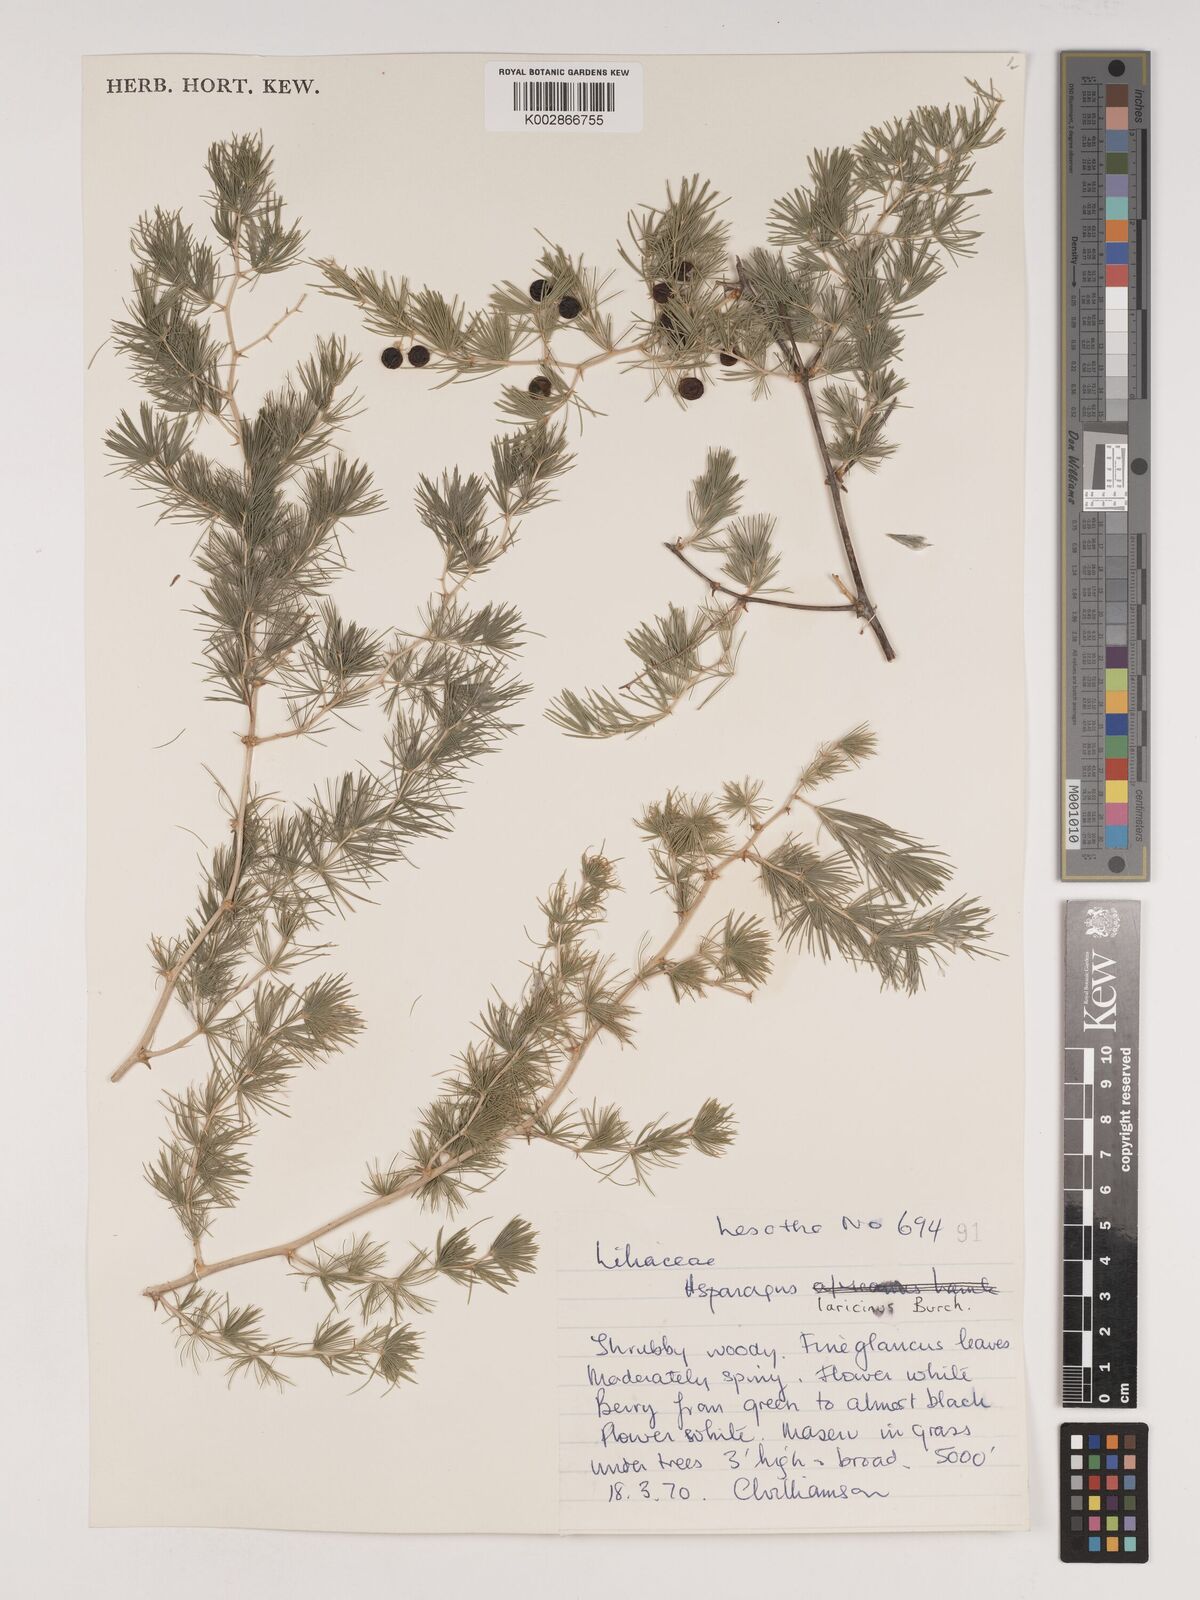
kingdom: Plantae
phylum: Tracheophyta
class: Liliopsida
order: Asparagales
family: Asparagaceae
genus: Asparagus
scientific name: Asparagus laricinus
